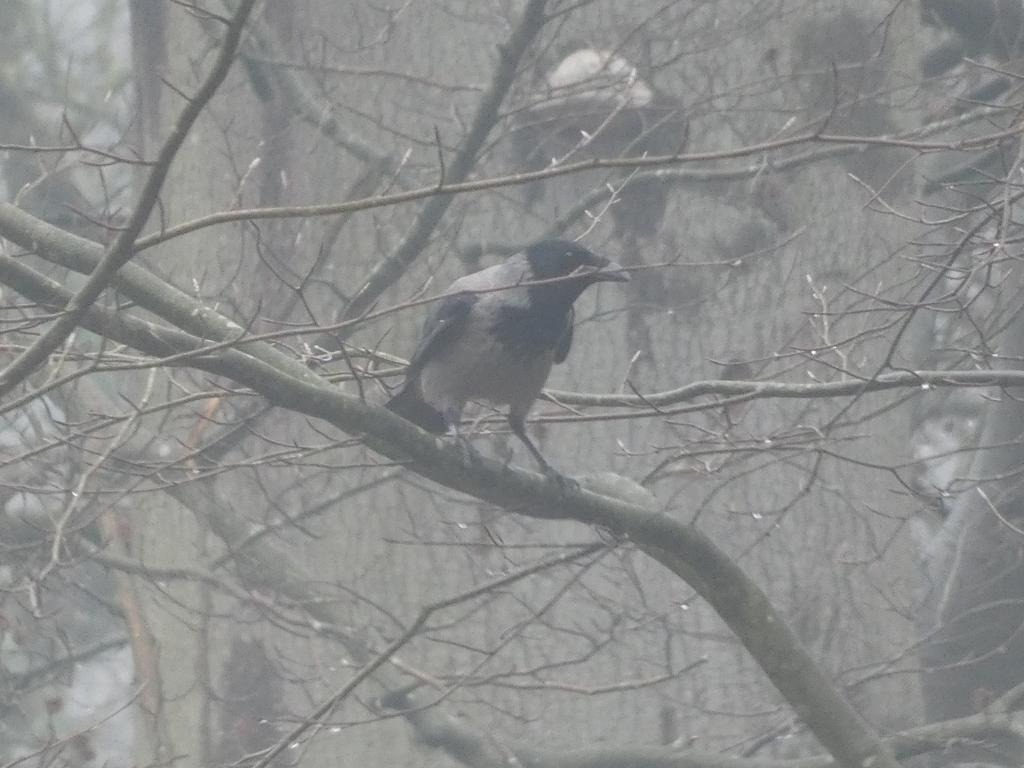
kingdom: Animalia
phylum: Chordata
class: Aves
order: Passeriformes
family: Corvidae
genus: Corvus
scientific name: Corvus cornix
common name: Gråkrage
